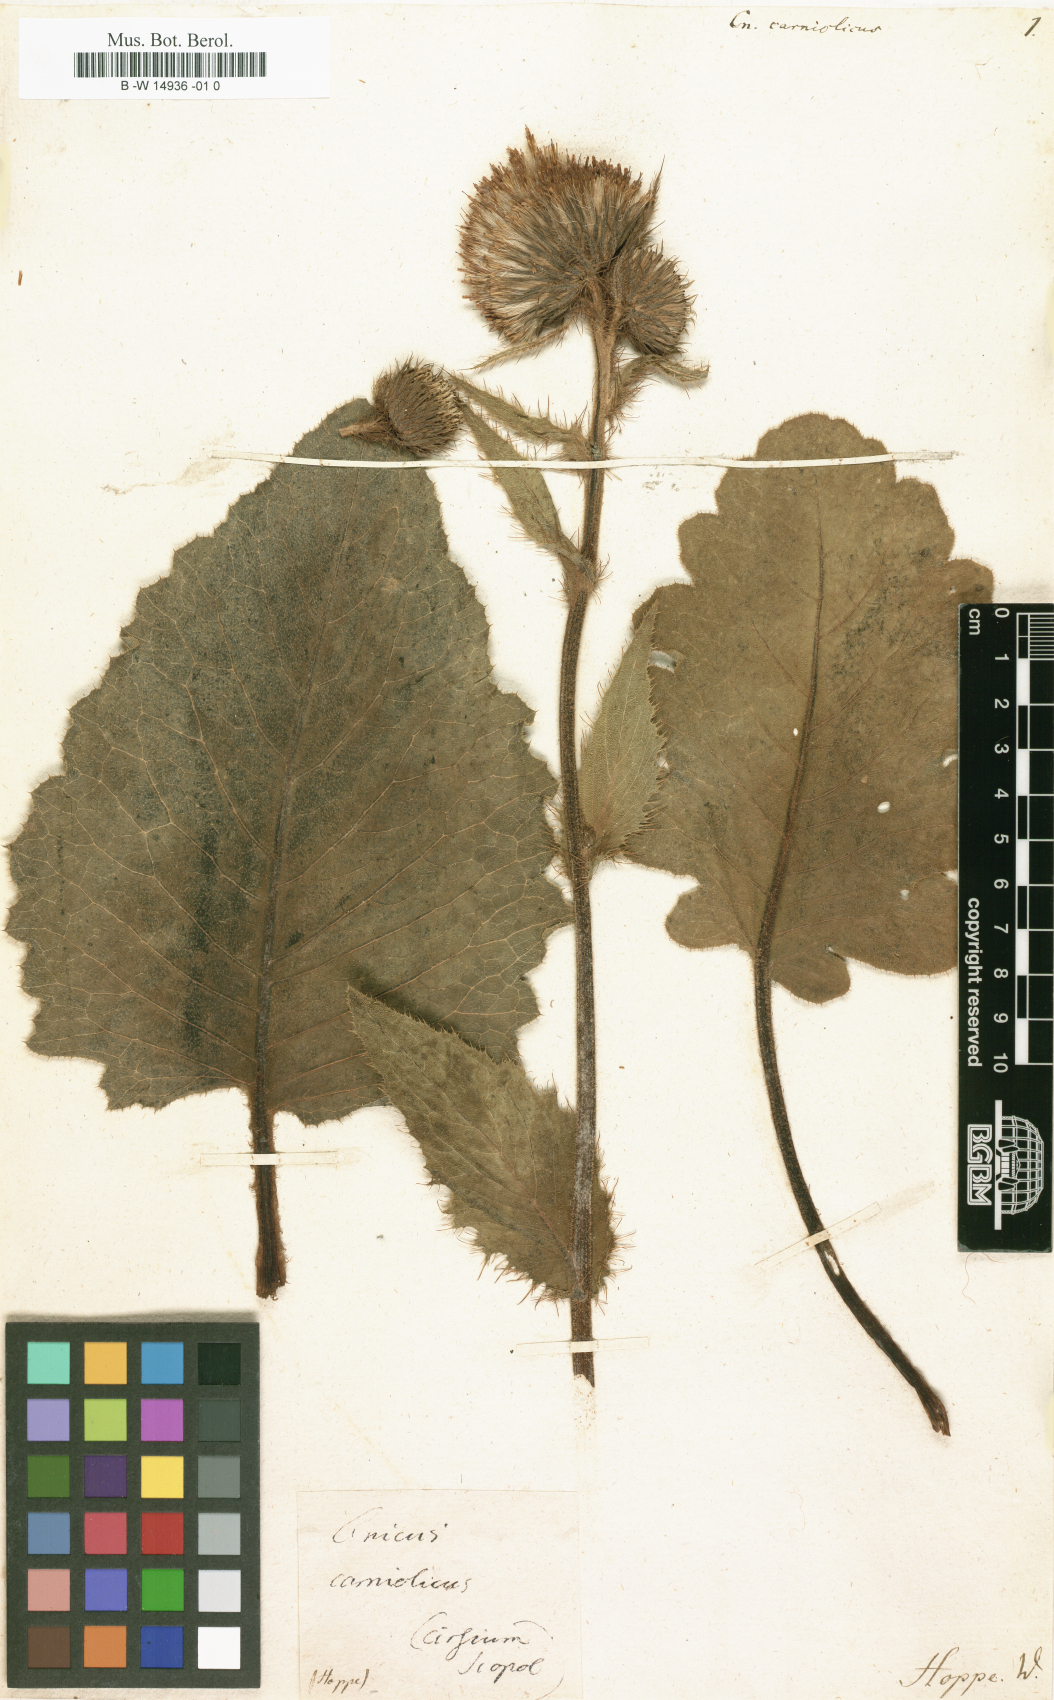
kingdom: Plantae
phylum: Tracheophyta
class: Magnoliopsida
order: Asterales
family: Asteraceae
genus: Cirsium
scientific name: Cirsium carniolicum
